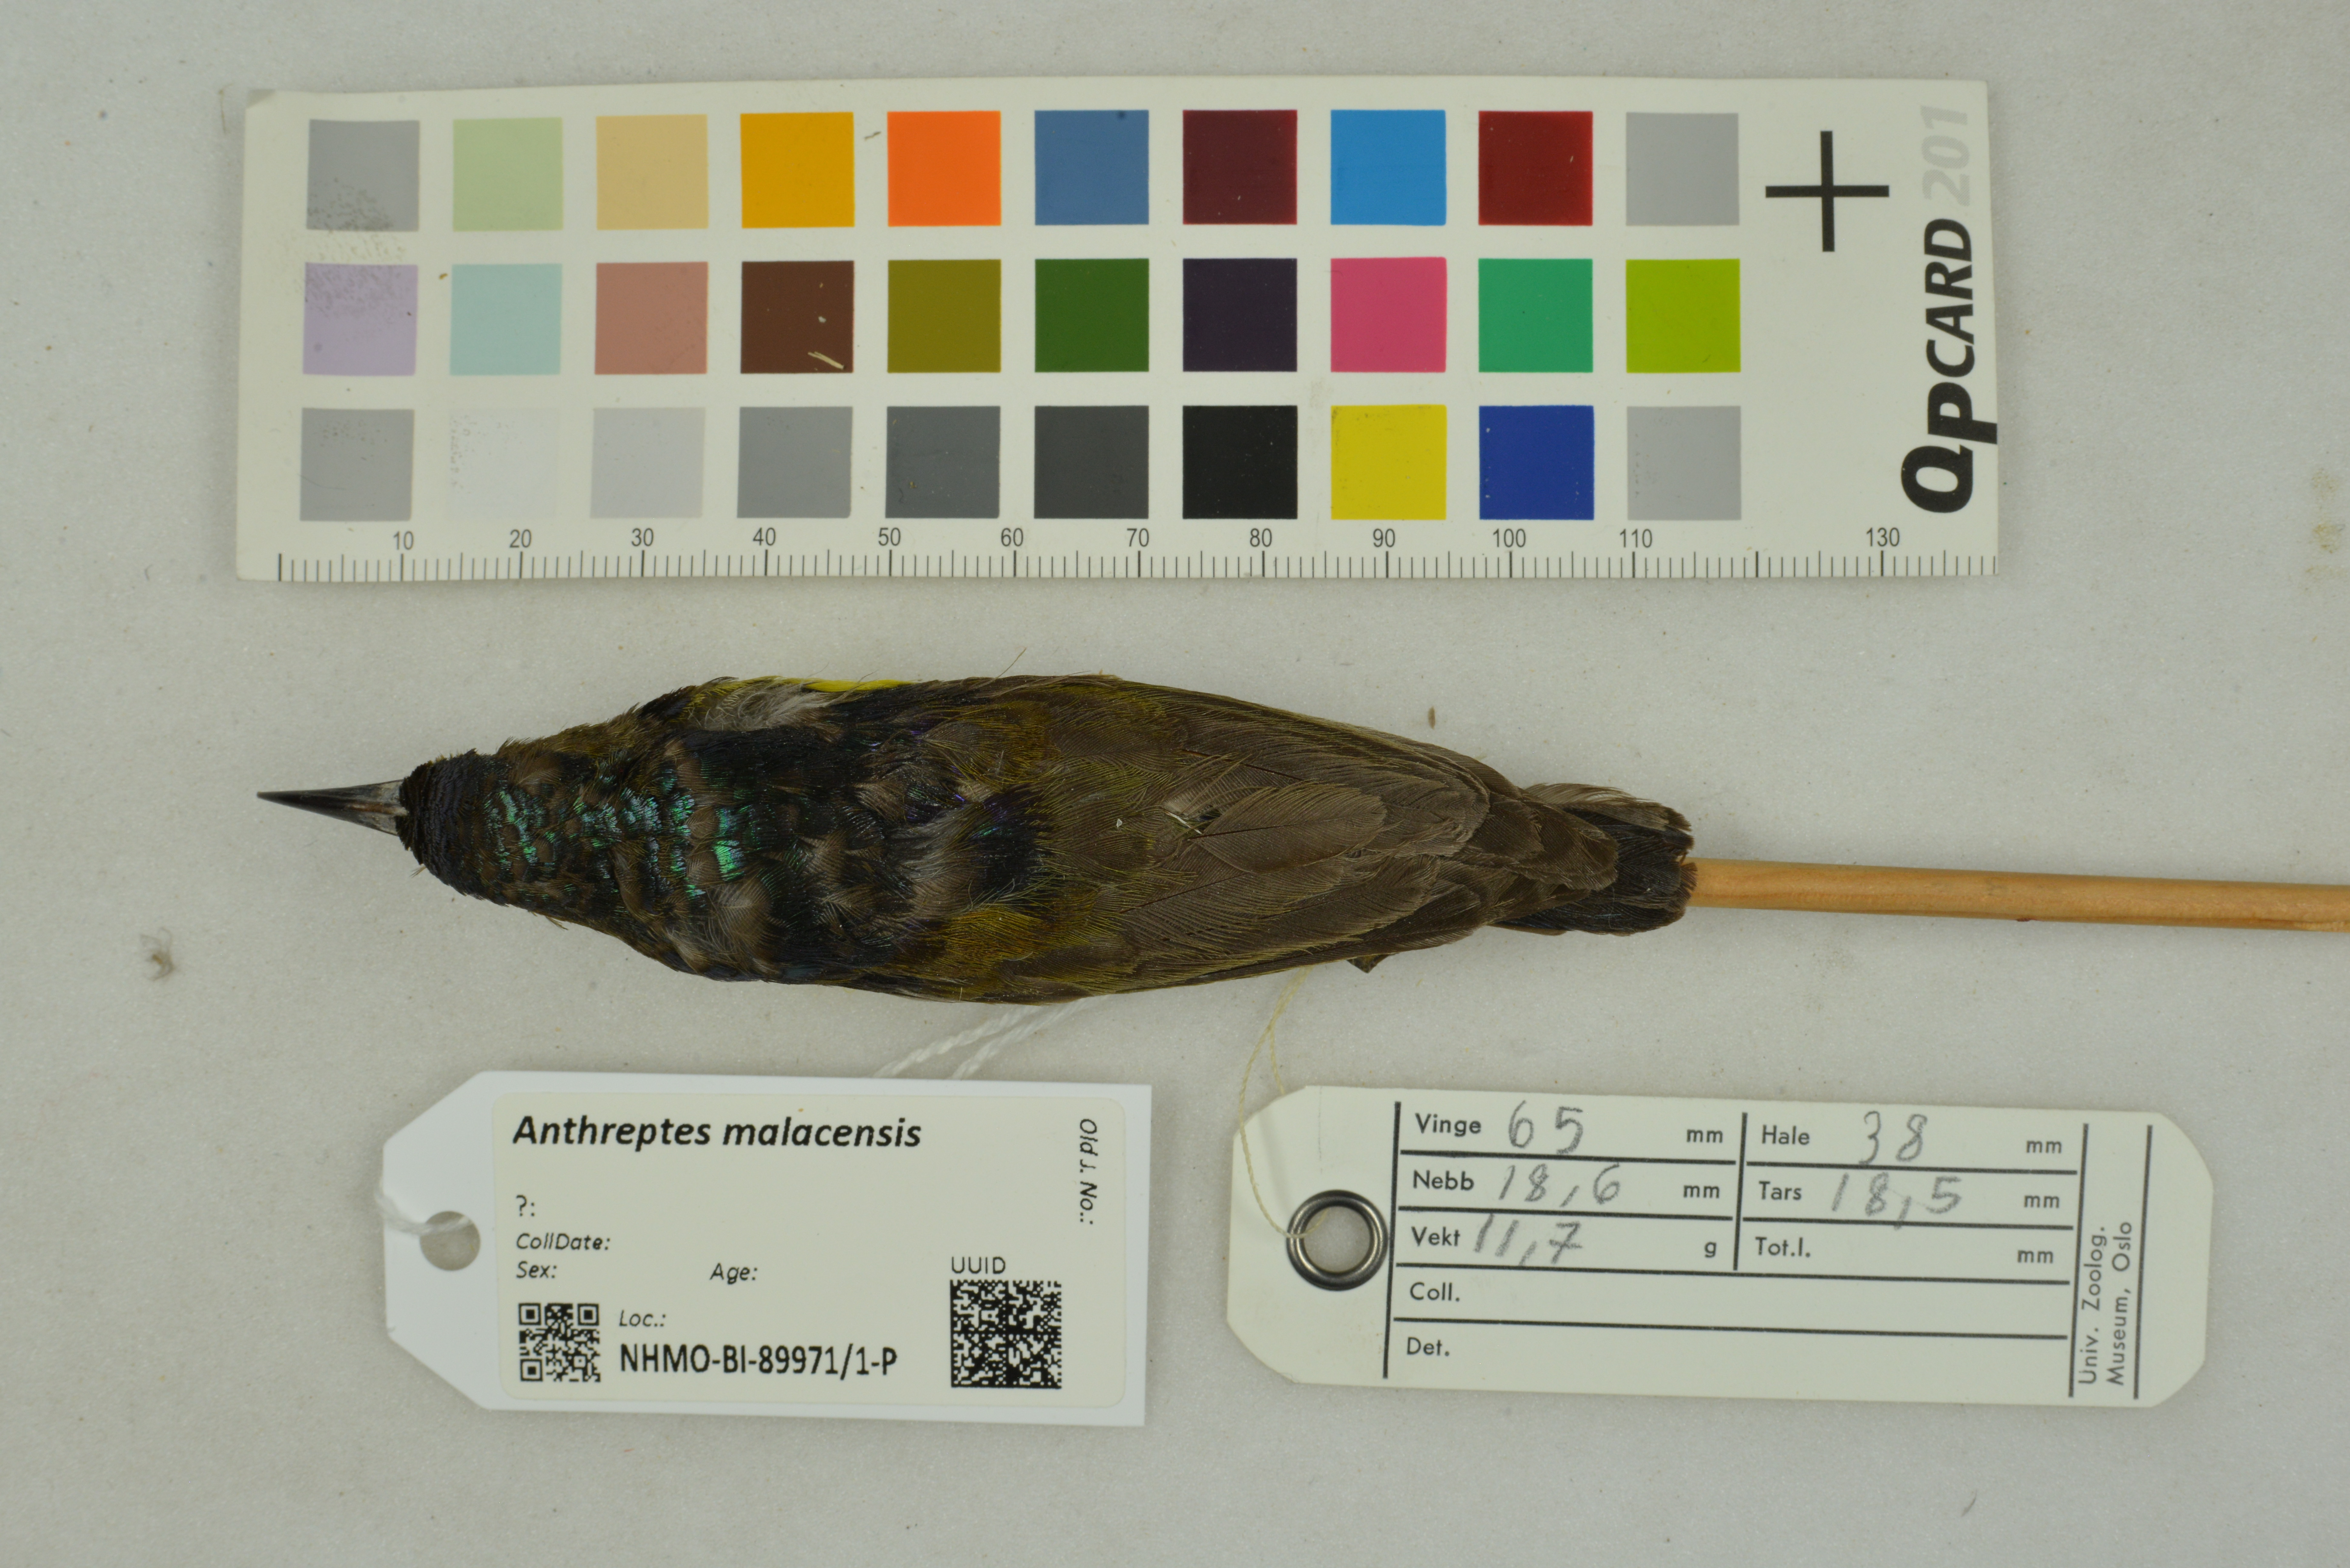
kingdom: Animalia
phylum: Chordata
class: Aves
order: Passeriformes
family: Nectariniidae
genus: Anthreptes
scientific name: Anthreptes malacensis
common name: Brown-throated sunbird
